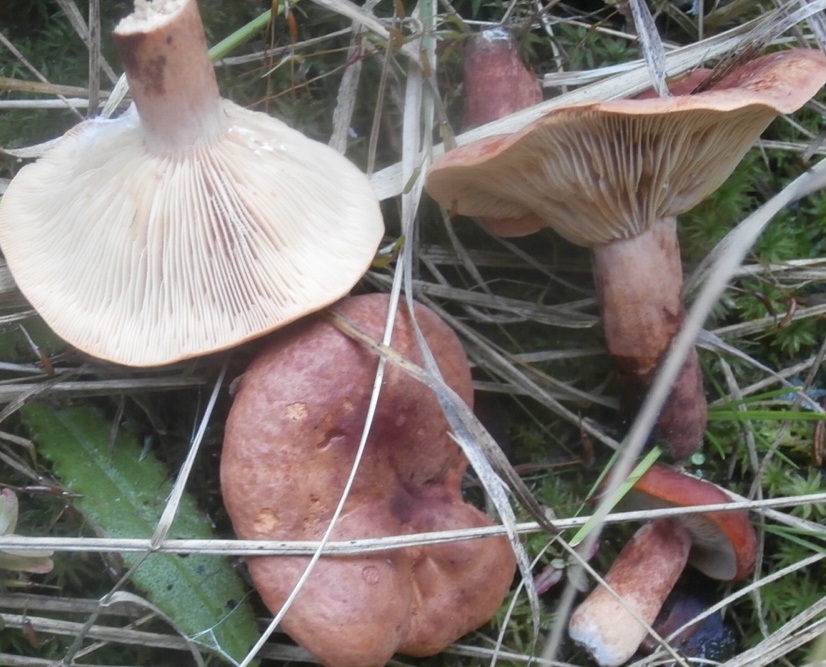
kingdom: Fungi
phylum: Basidiomycota
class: Agaricomycetes
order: Russulales
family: Russulaceae
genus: Lactarius
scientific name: Lactarius fulvissimus
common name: ræve-mælkehat
